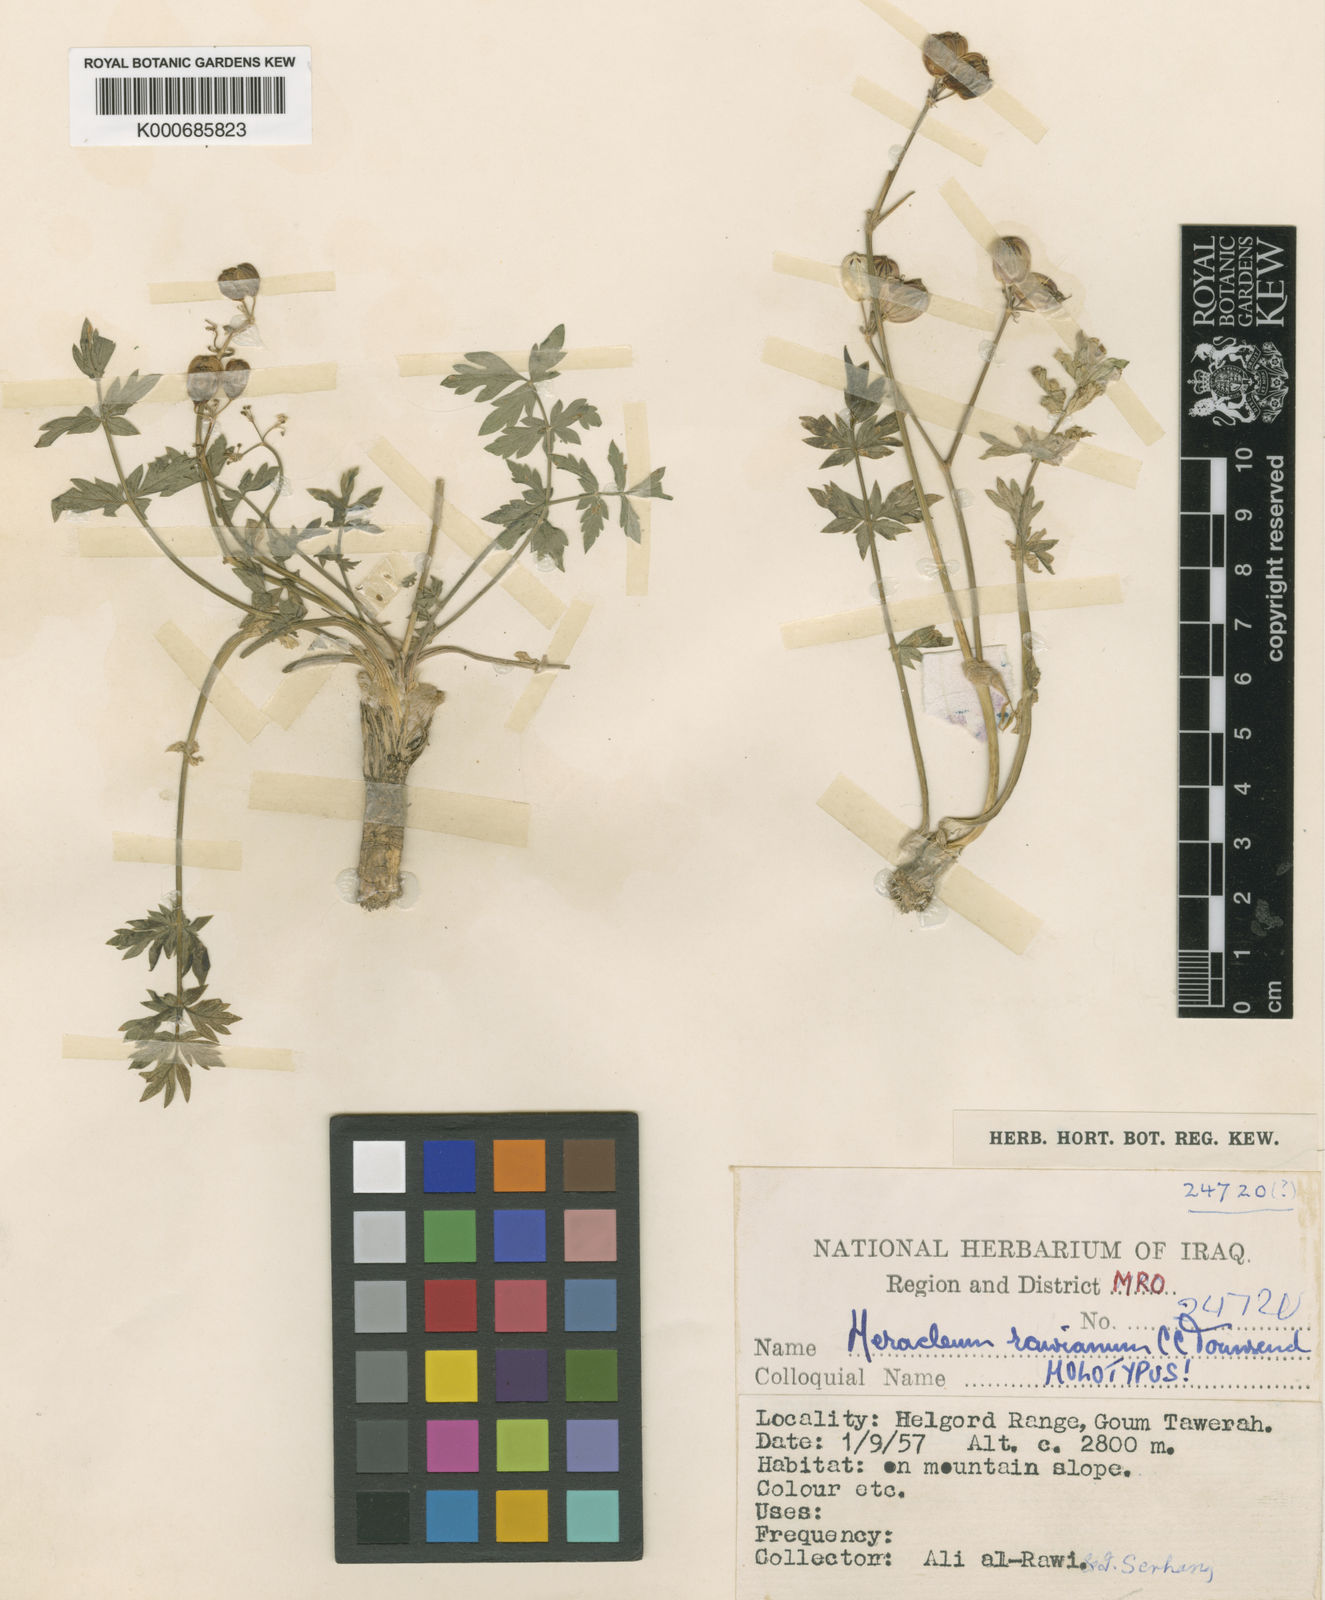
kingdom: Plantae
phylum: Tracheophyta
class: Magnoliopsida
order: Apiales
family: Apiaceae
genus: Heracleum
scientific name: Heracleum rawianum
